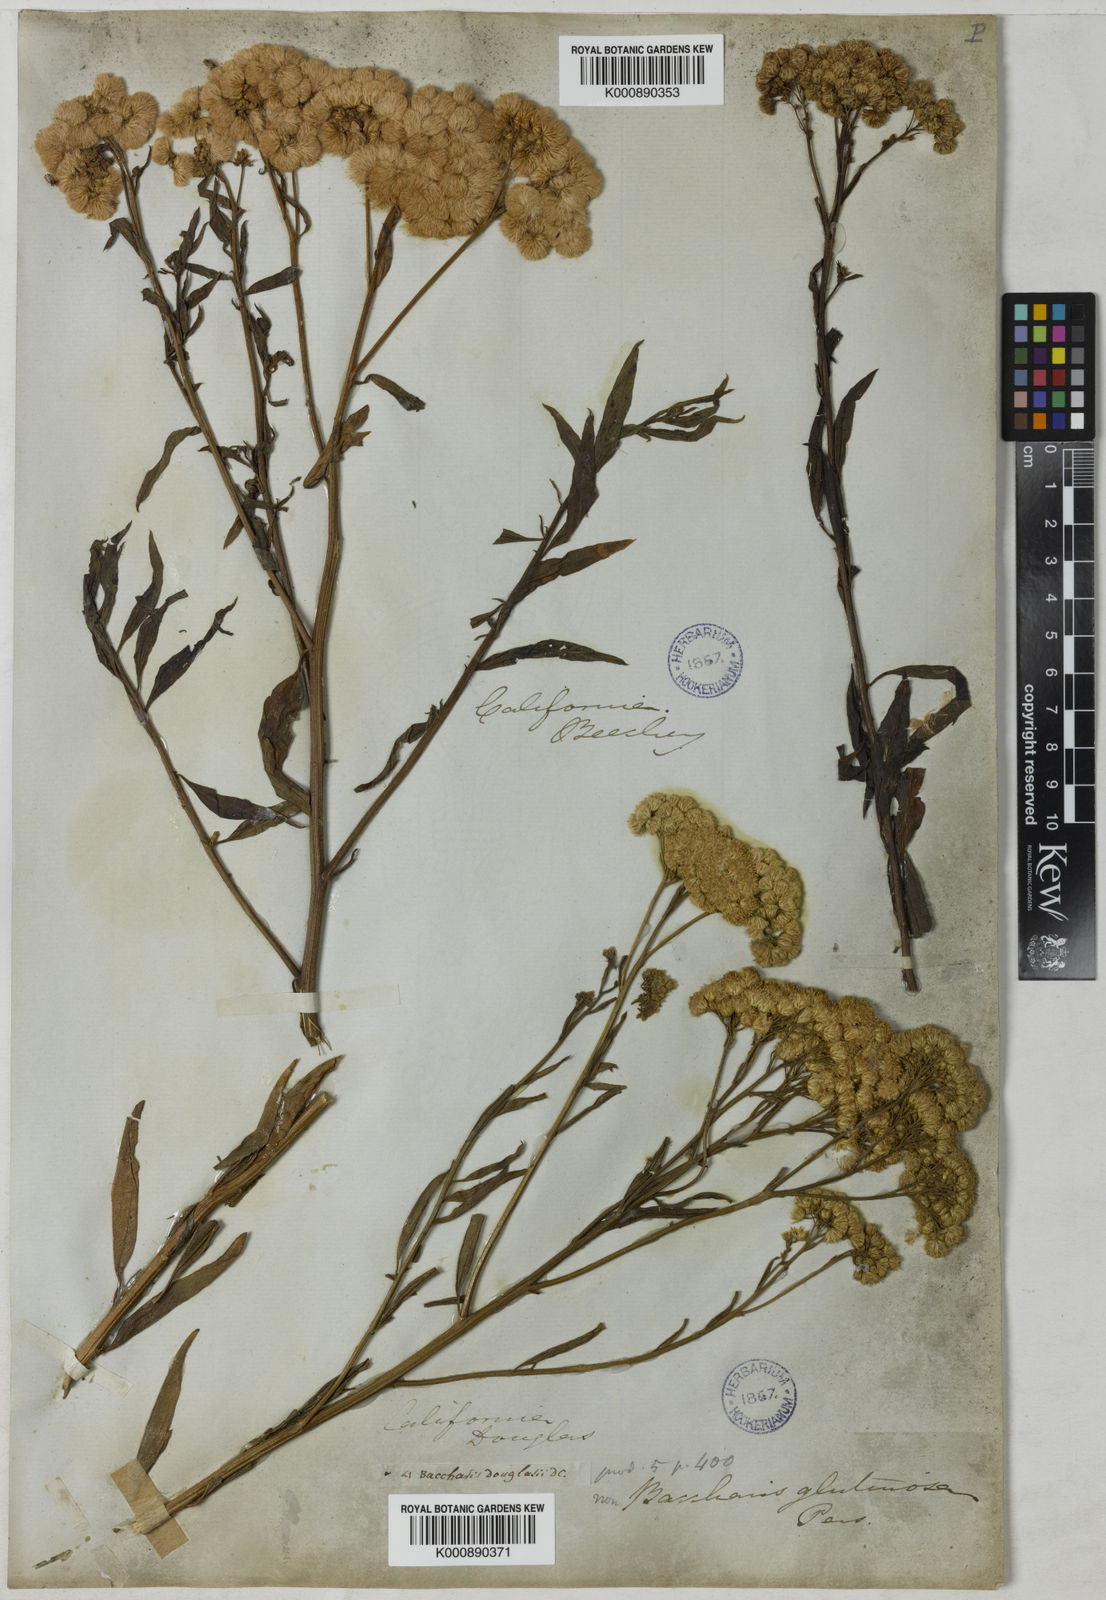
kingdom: Plantae
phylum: Tracheophyta
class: Magnoliopsida
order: Asterales
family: Asteraceae
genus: Baccharis
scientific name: Baccharis glutinosa
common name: Saltmarsh baccharis
